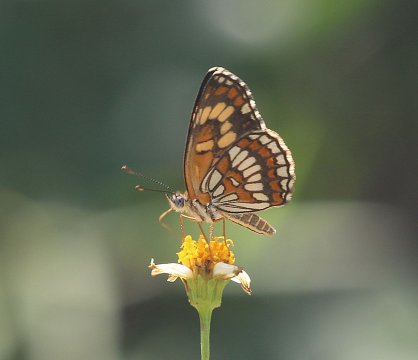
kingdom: Animalia
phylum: Arthropoda
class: Insecta
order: Lepidoptera
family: Nymphalidae
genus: Thessalia
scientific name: Thessalia theona
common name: Theona Checkerspot
